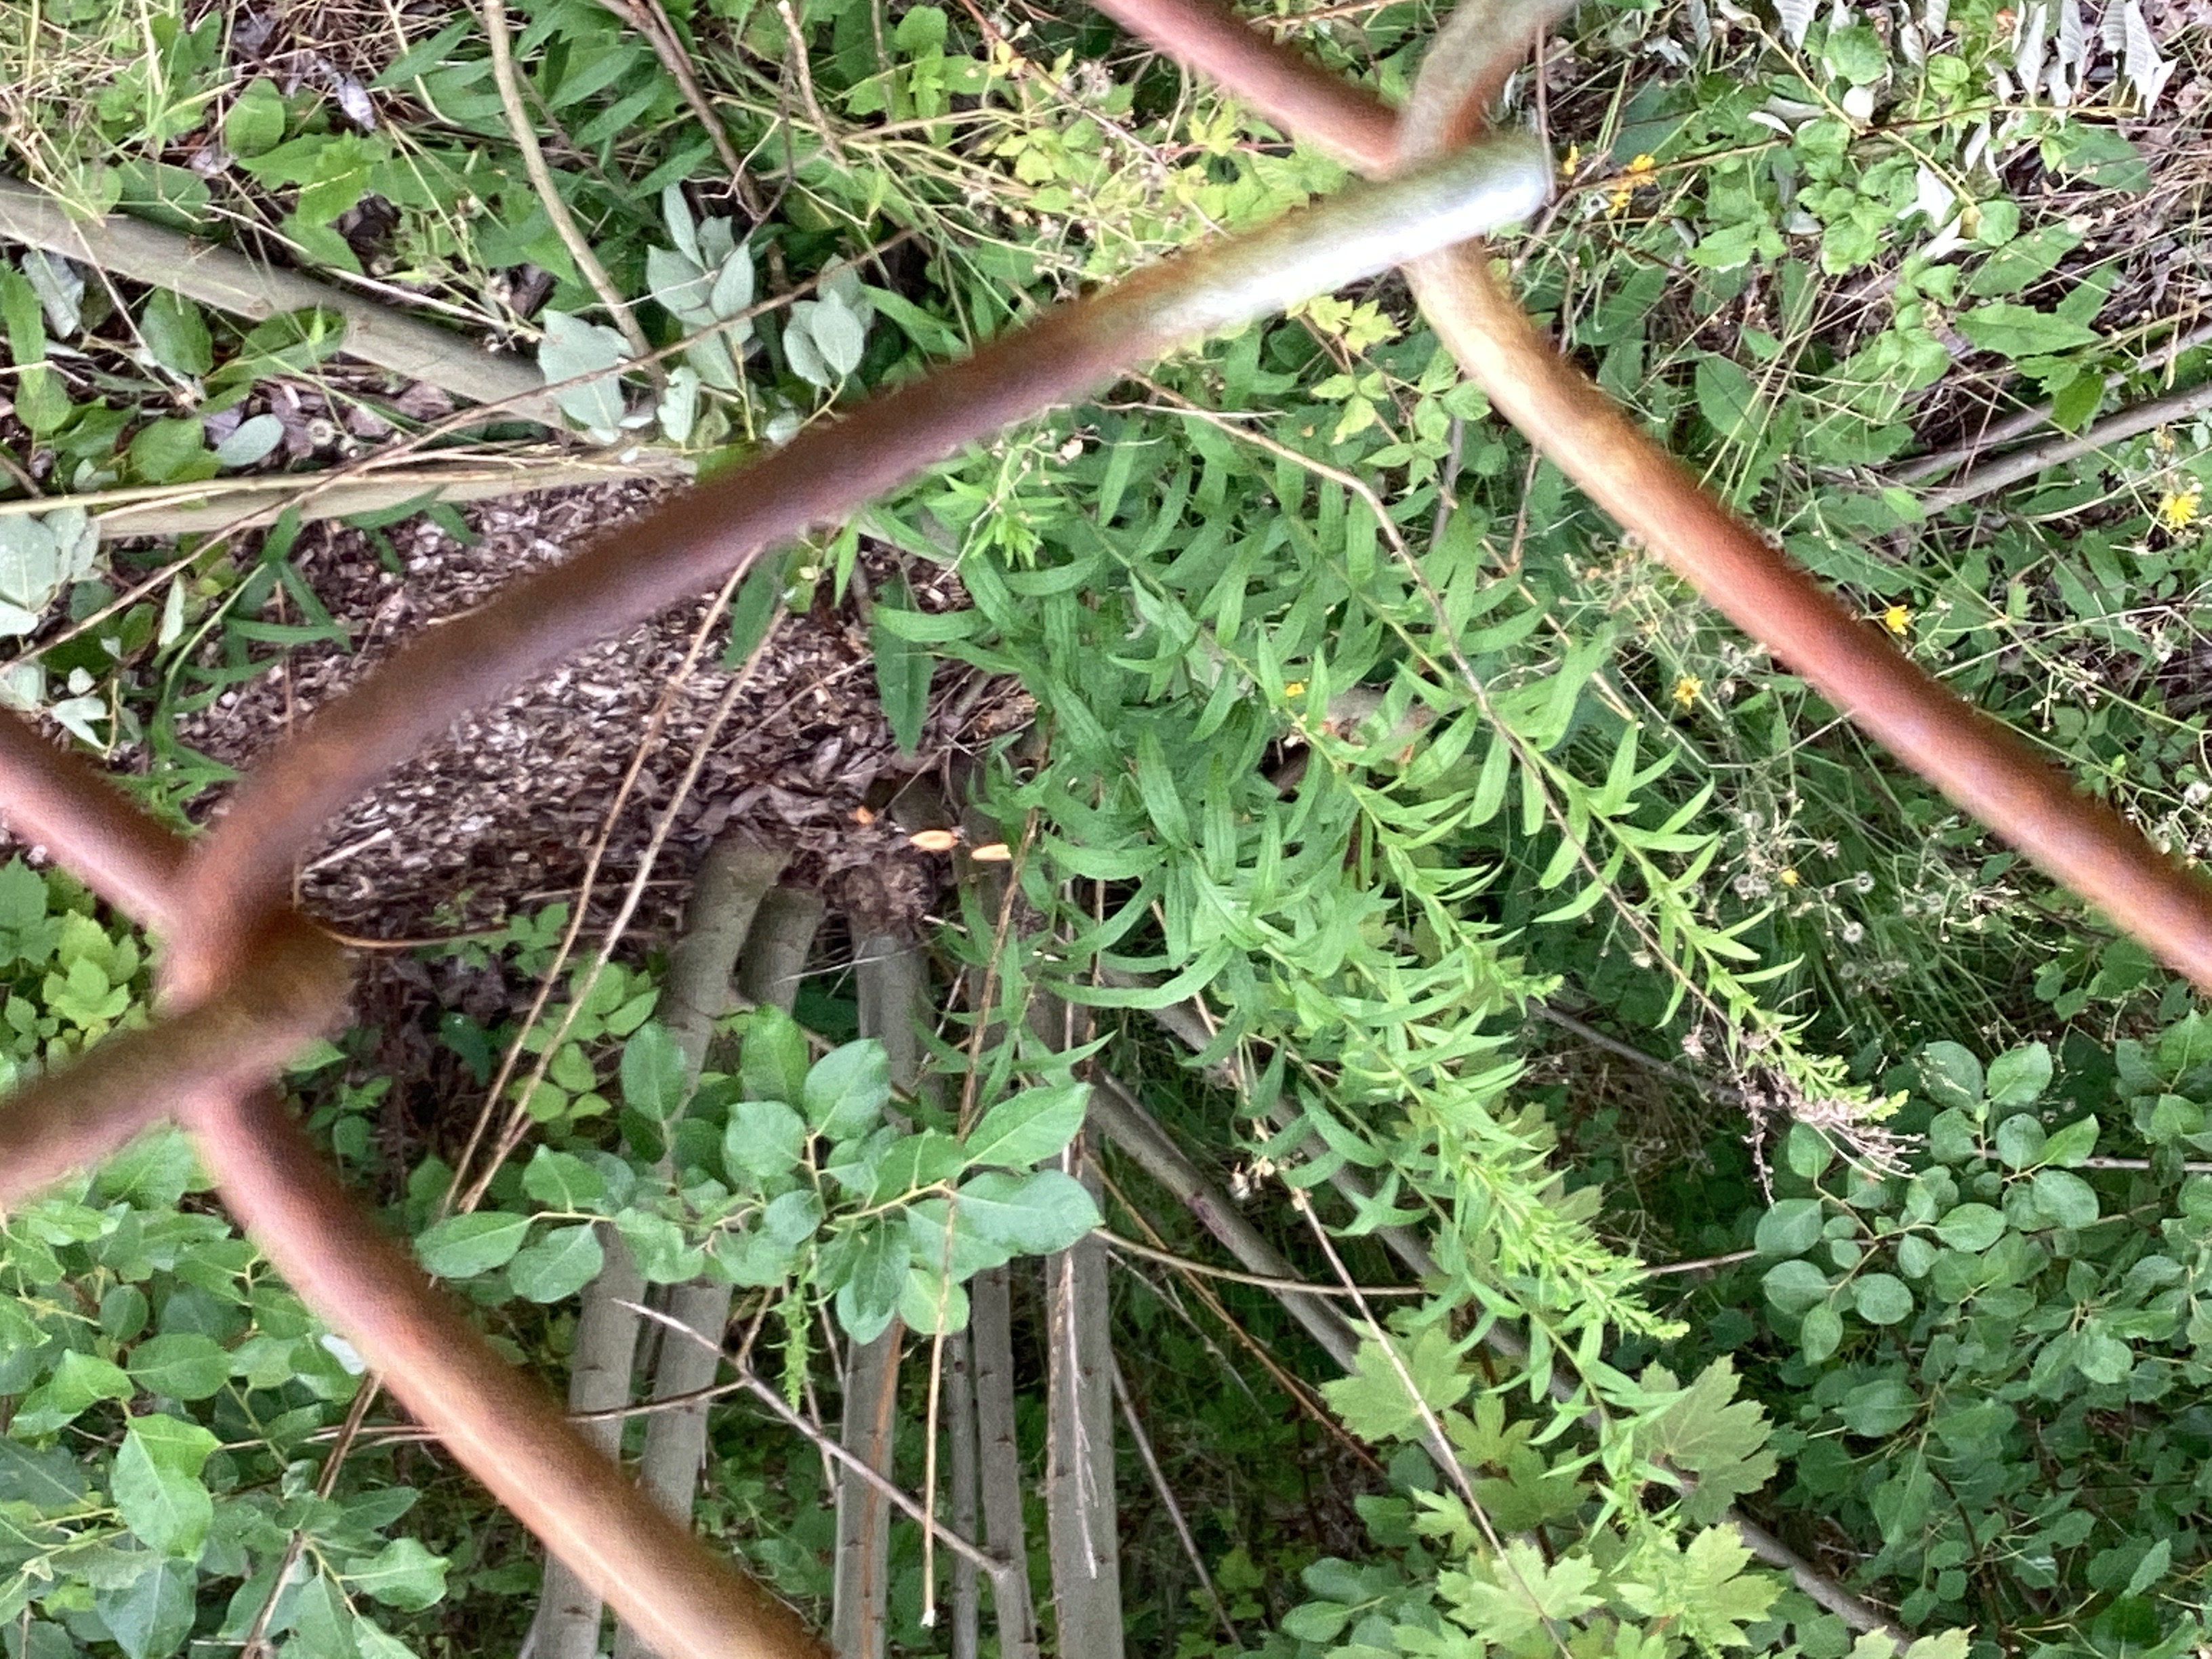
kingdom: Plantae
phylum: Tracheophyta
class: Magnoliopsida
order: Asterales
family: Asteraceae
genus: Solidago
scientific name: Solidago canadensis
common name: kanadagullris
